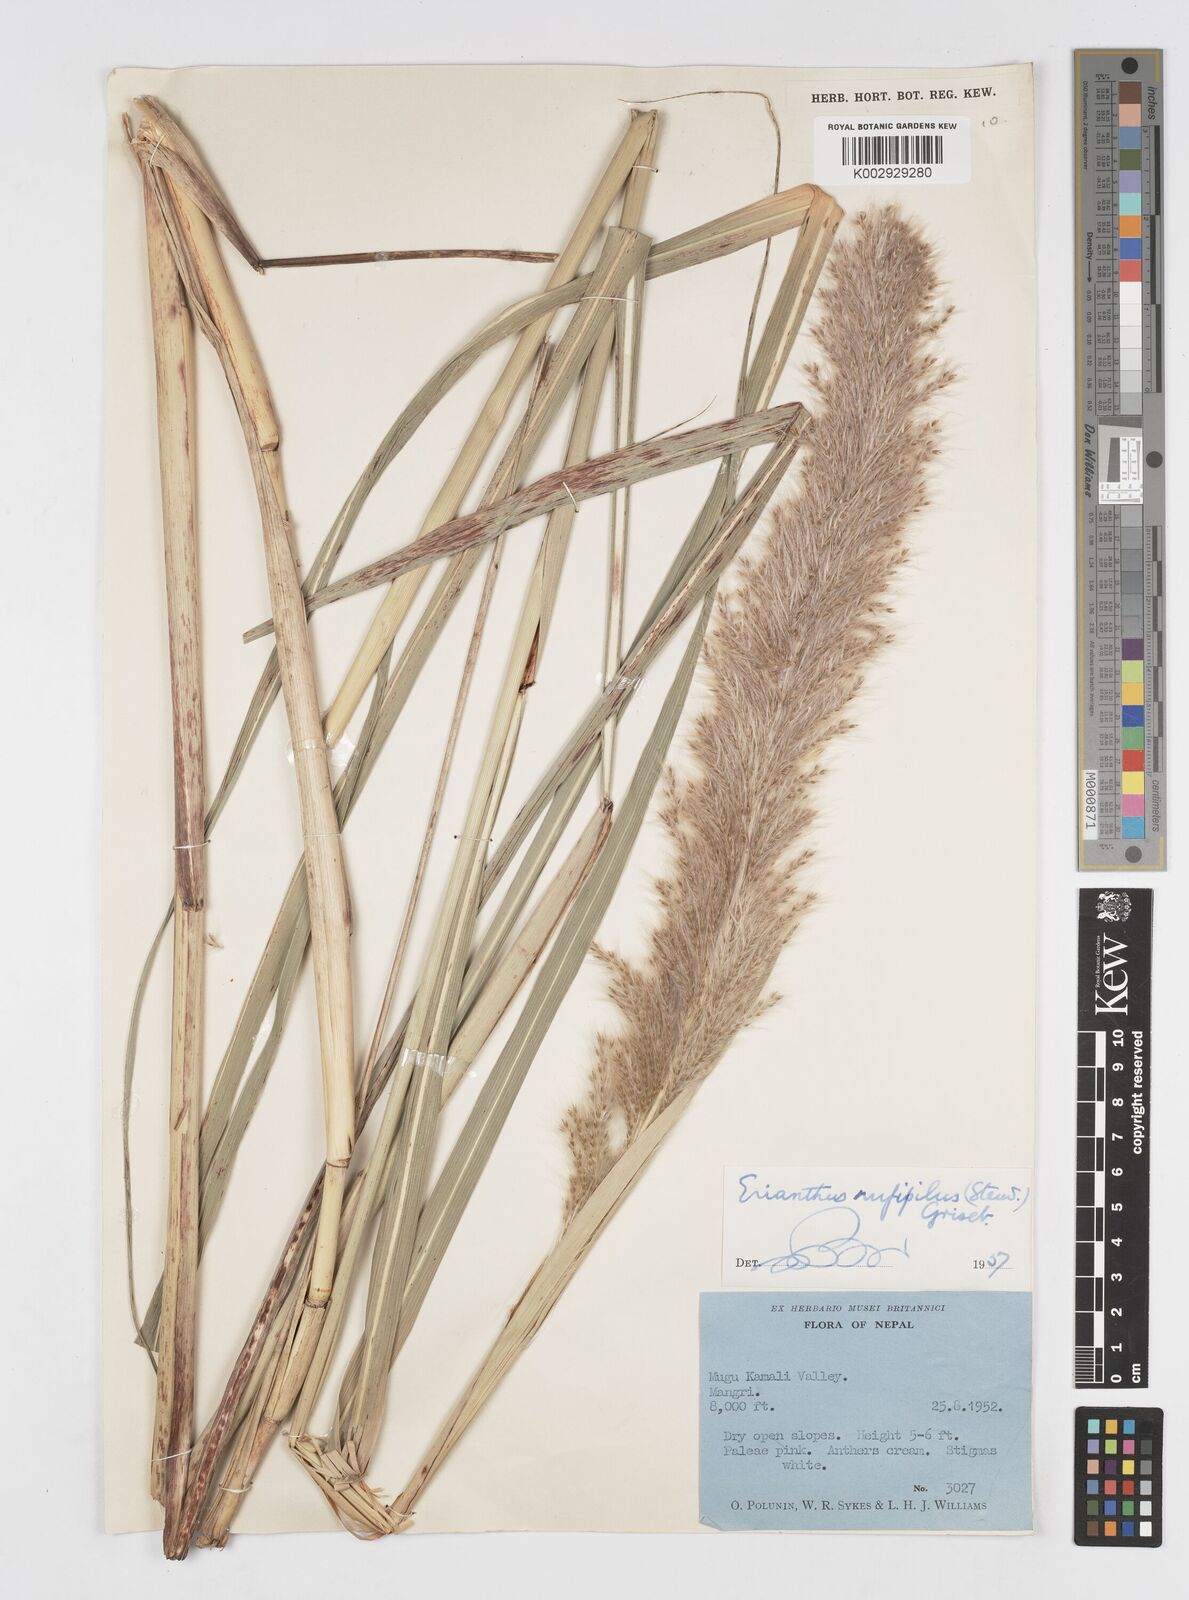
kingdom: Plantae
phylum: Tracheophyta
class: Liliopsida
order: Poales
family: Poaceae
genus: Tripidium
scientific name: Tripidium rufipilum
